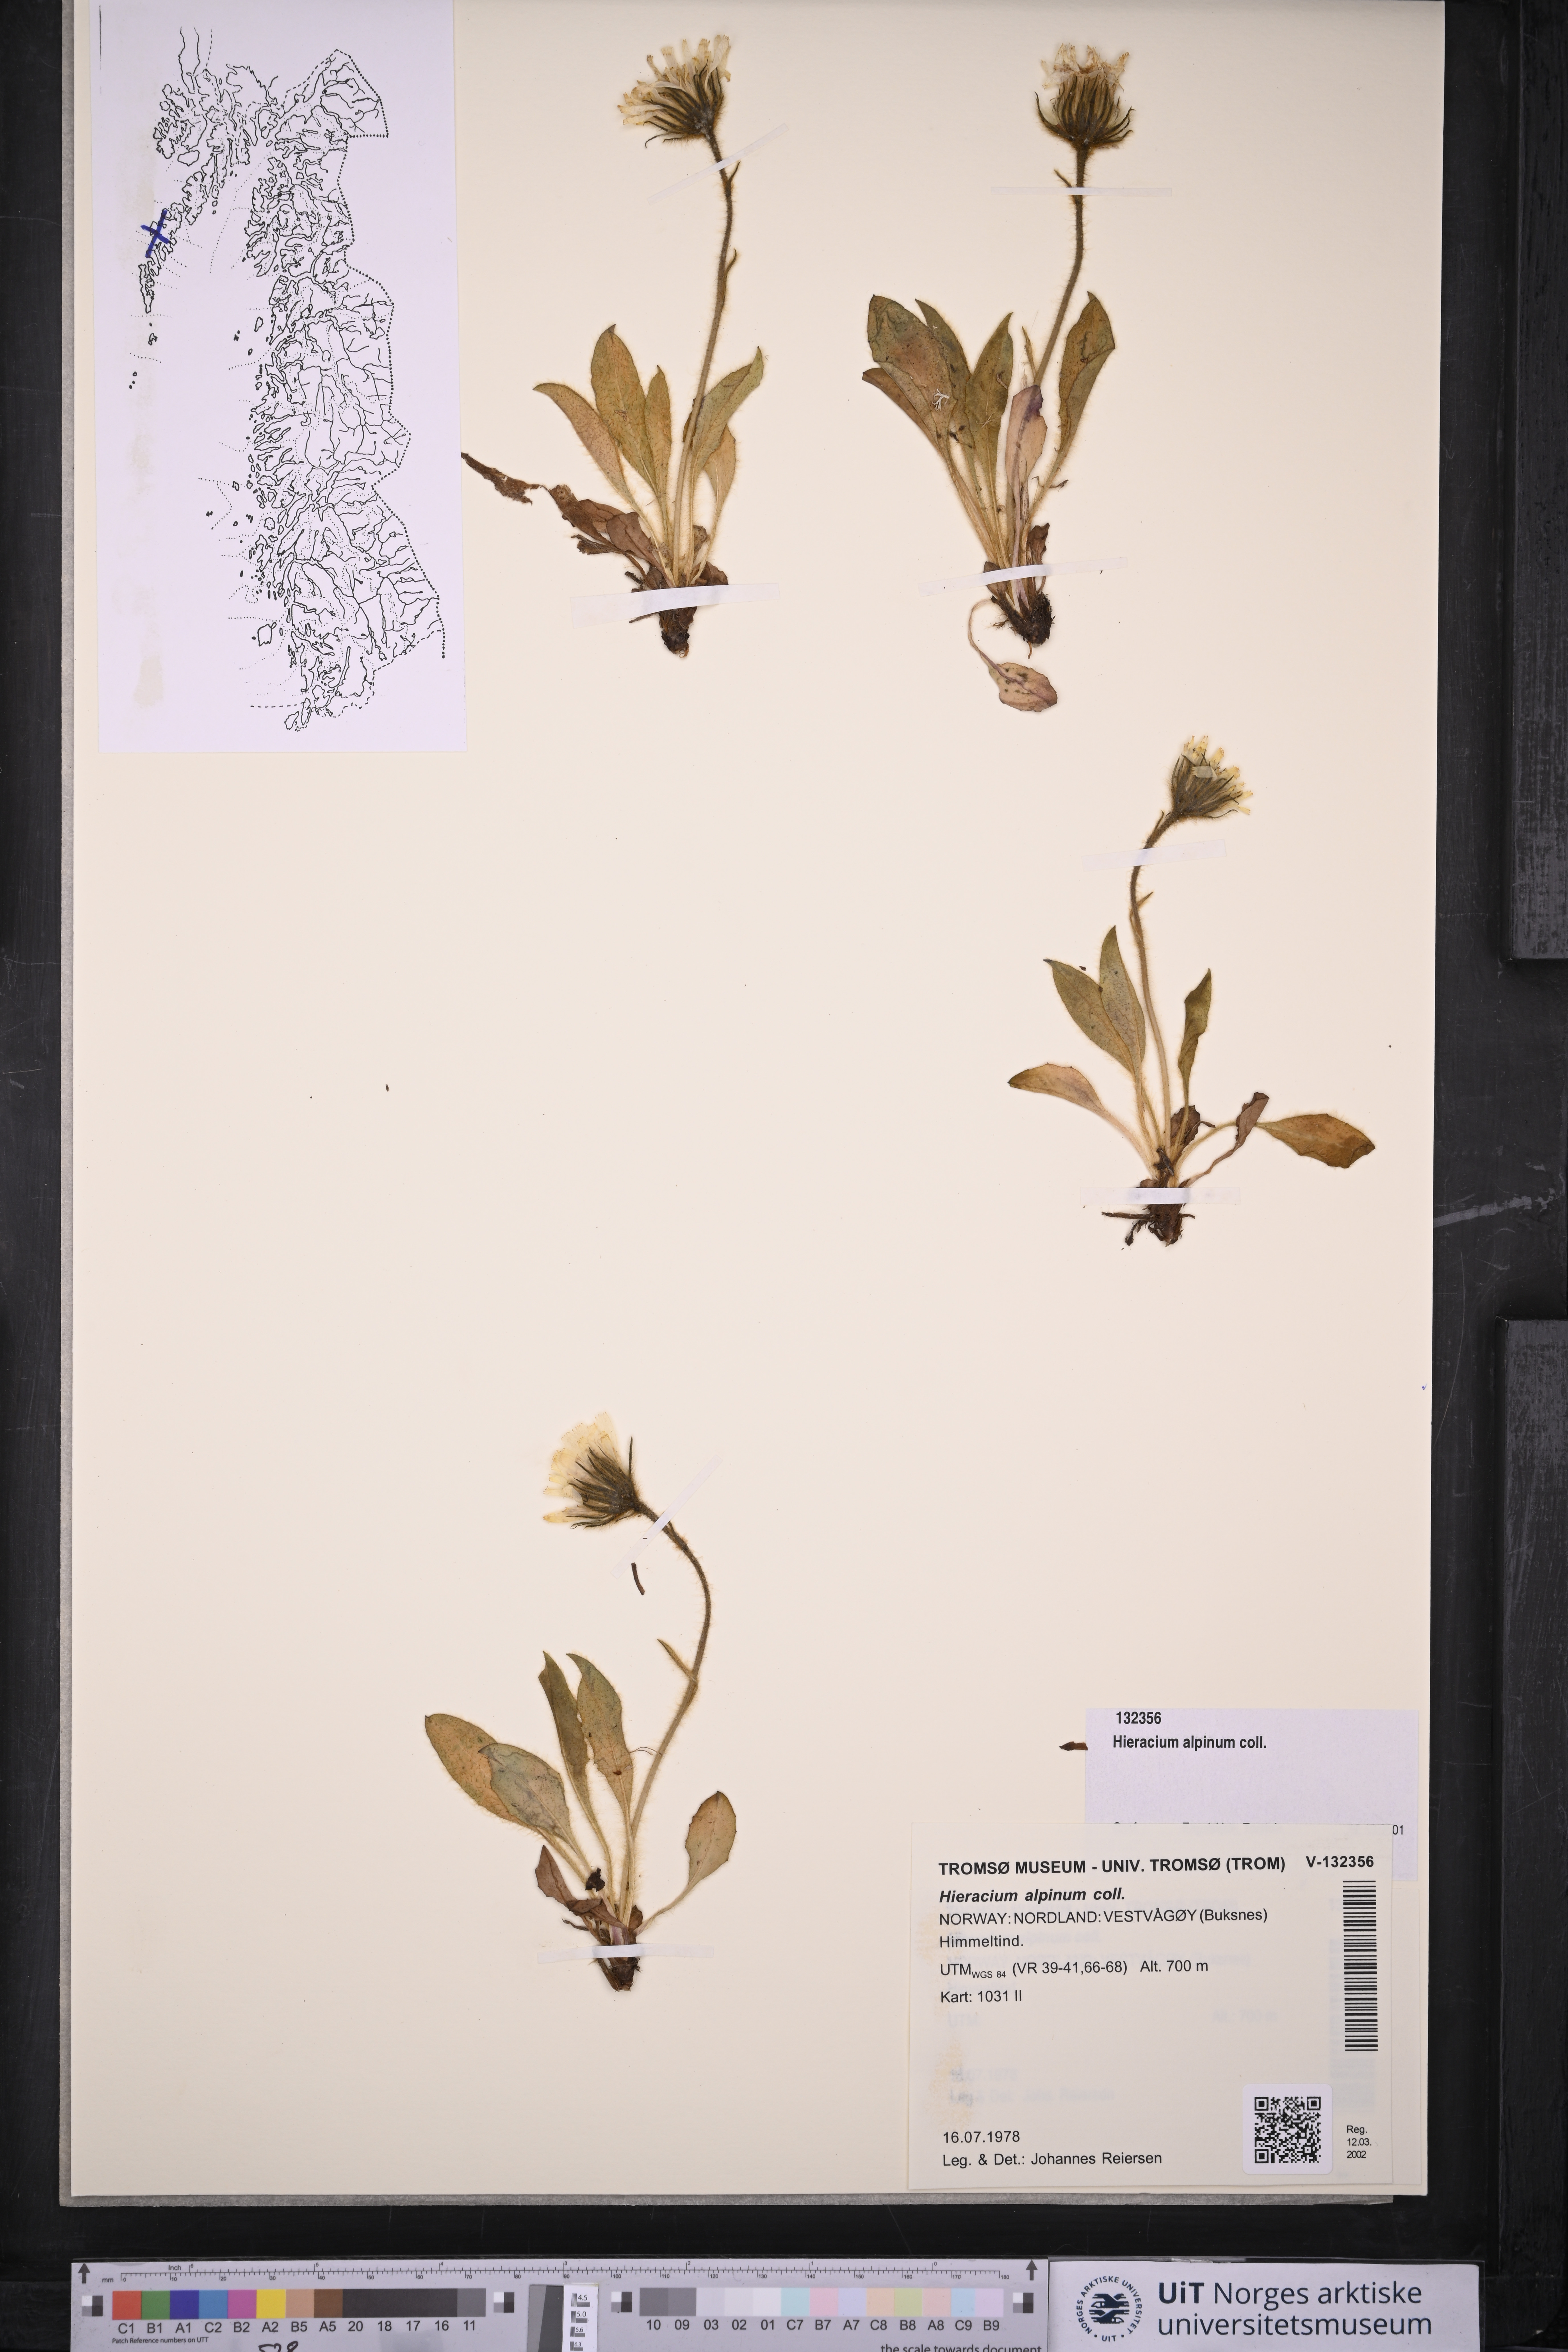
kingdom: Plantae
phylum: Tracheophyta
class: Magnoliopsida
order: Asterales
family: Asteraceae
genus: Hieracium
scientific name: Hieracium alpinum
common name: Alpine hawkweed
